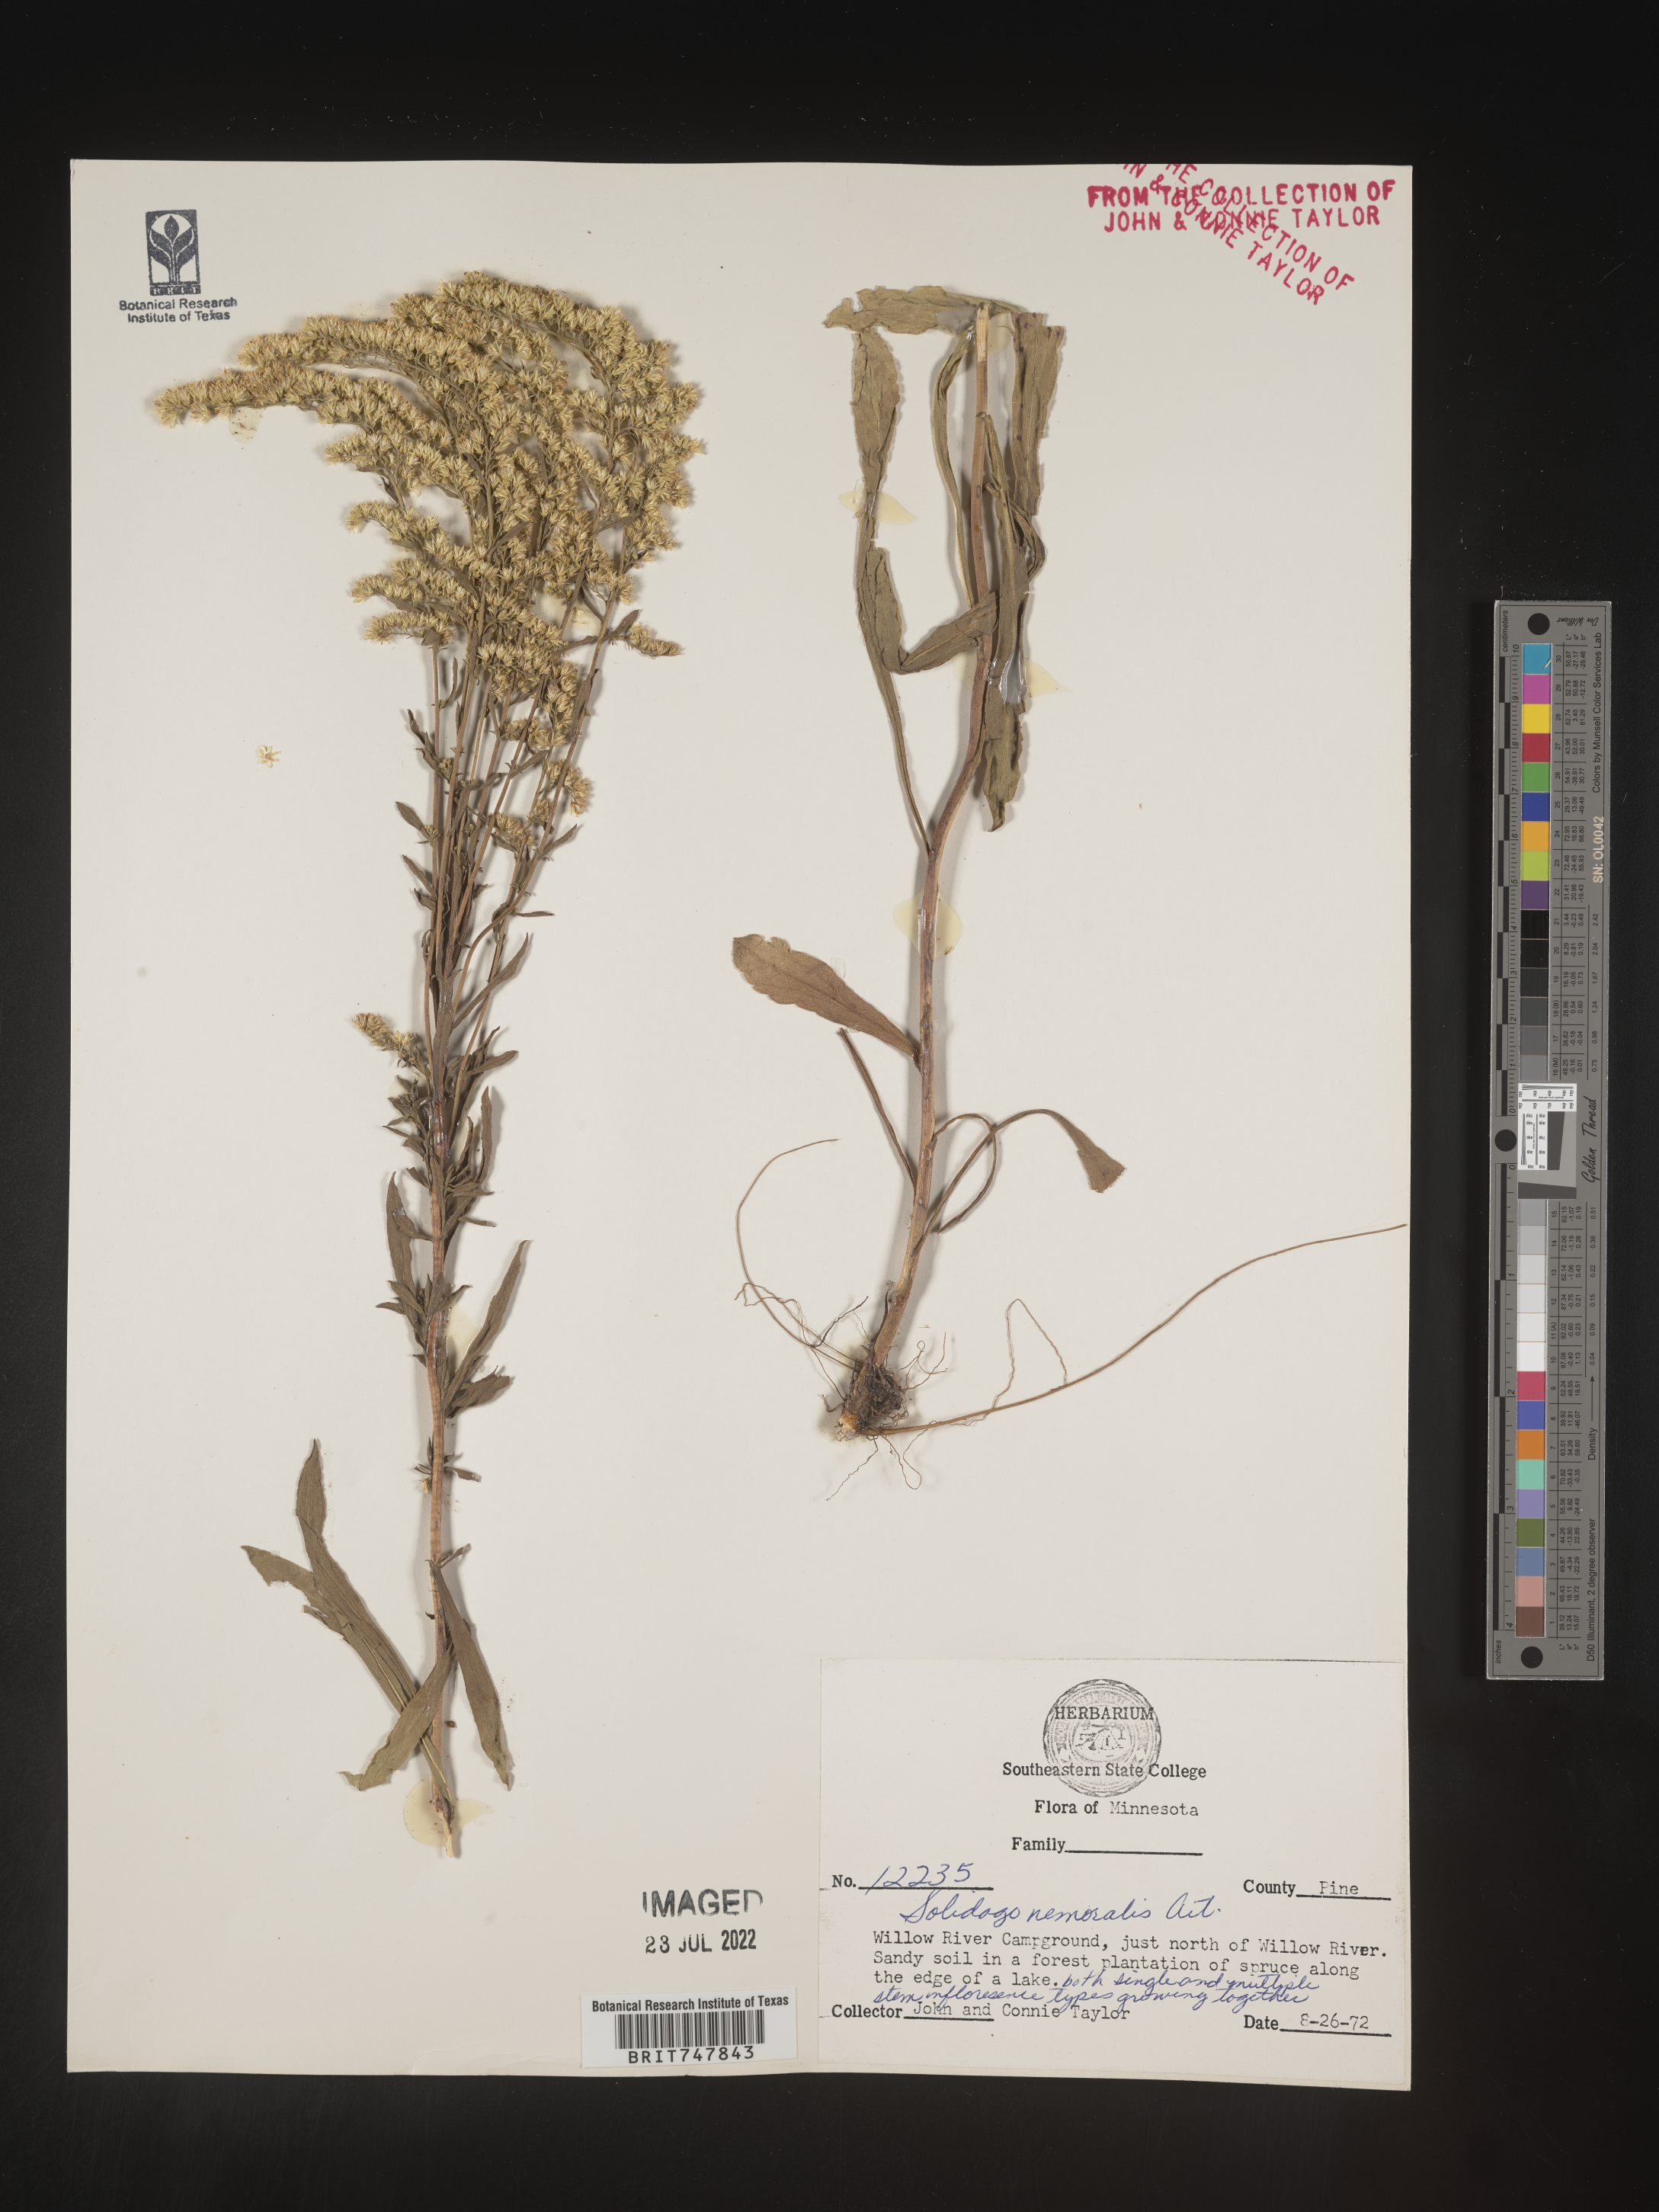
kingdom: Plantae
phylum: Tracheophyta
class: Magnoliopsida
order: Asterales
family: Asteraceae
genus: Solidago
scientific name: Solidago nemoralis
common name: Grey goldenrod
